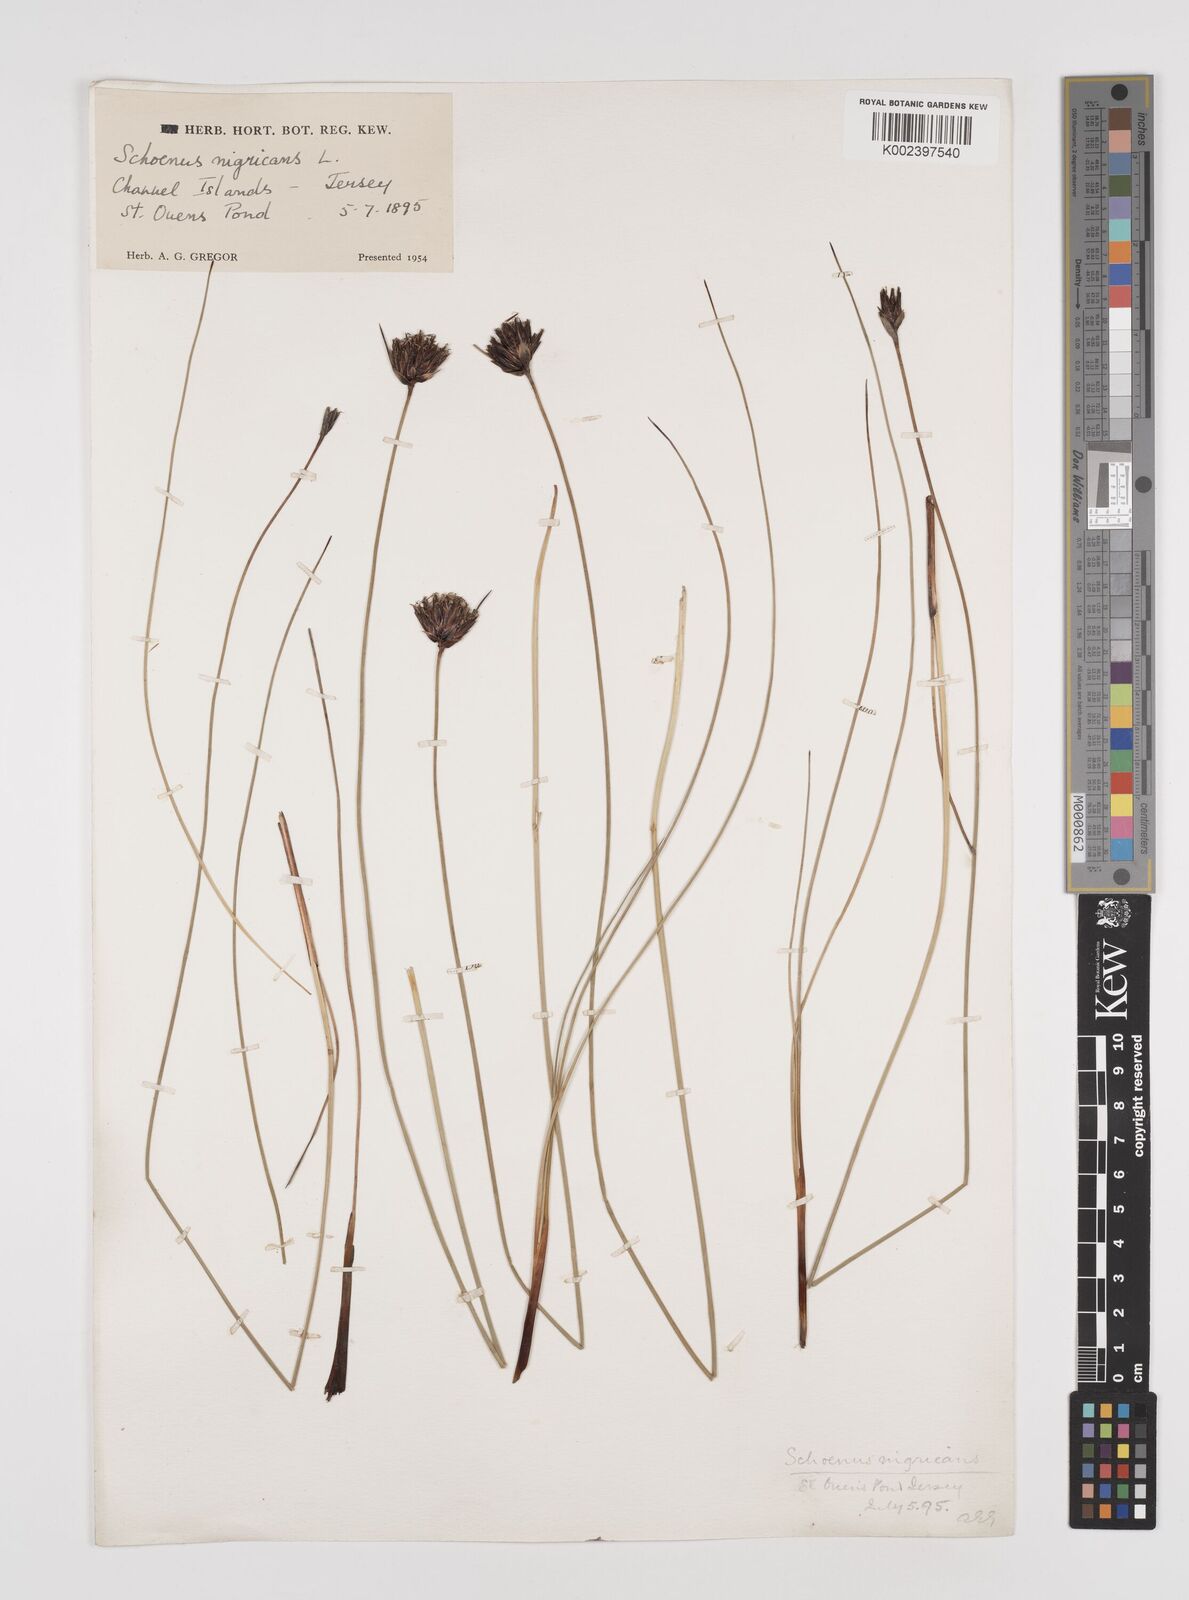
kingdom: Plantae
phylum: Tracheophyta
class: Liliopsida
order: Poales
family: Cyperaceae
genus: Schoenus
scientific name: Schoenus nigricans
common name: Black bog-rush
